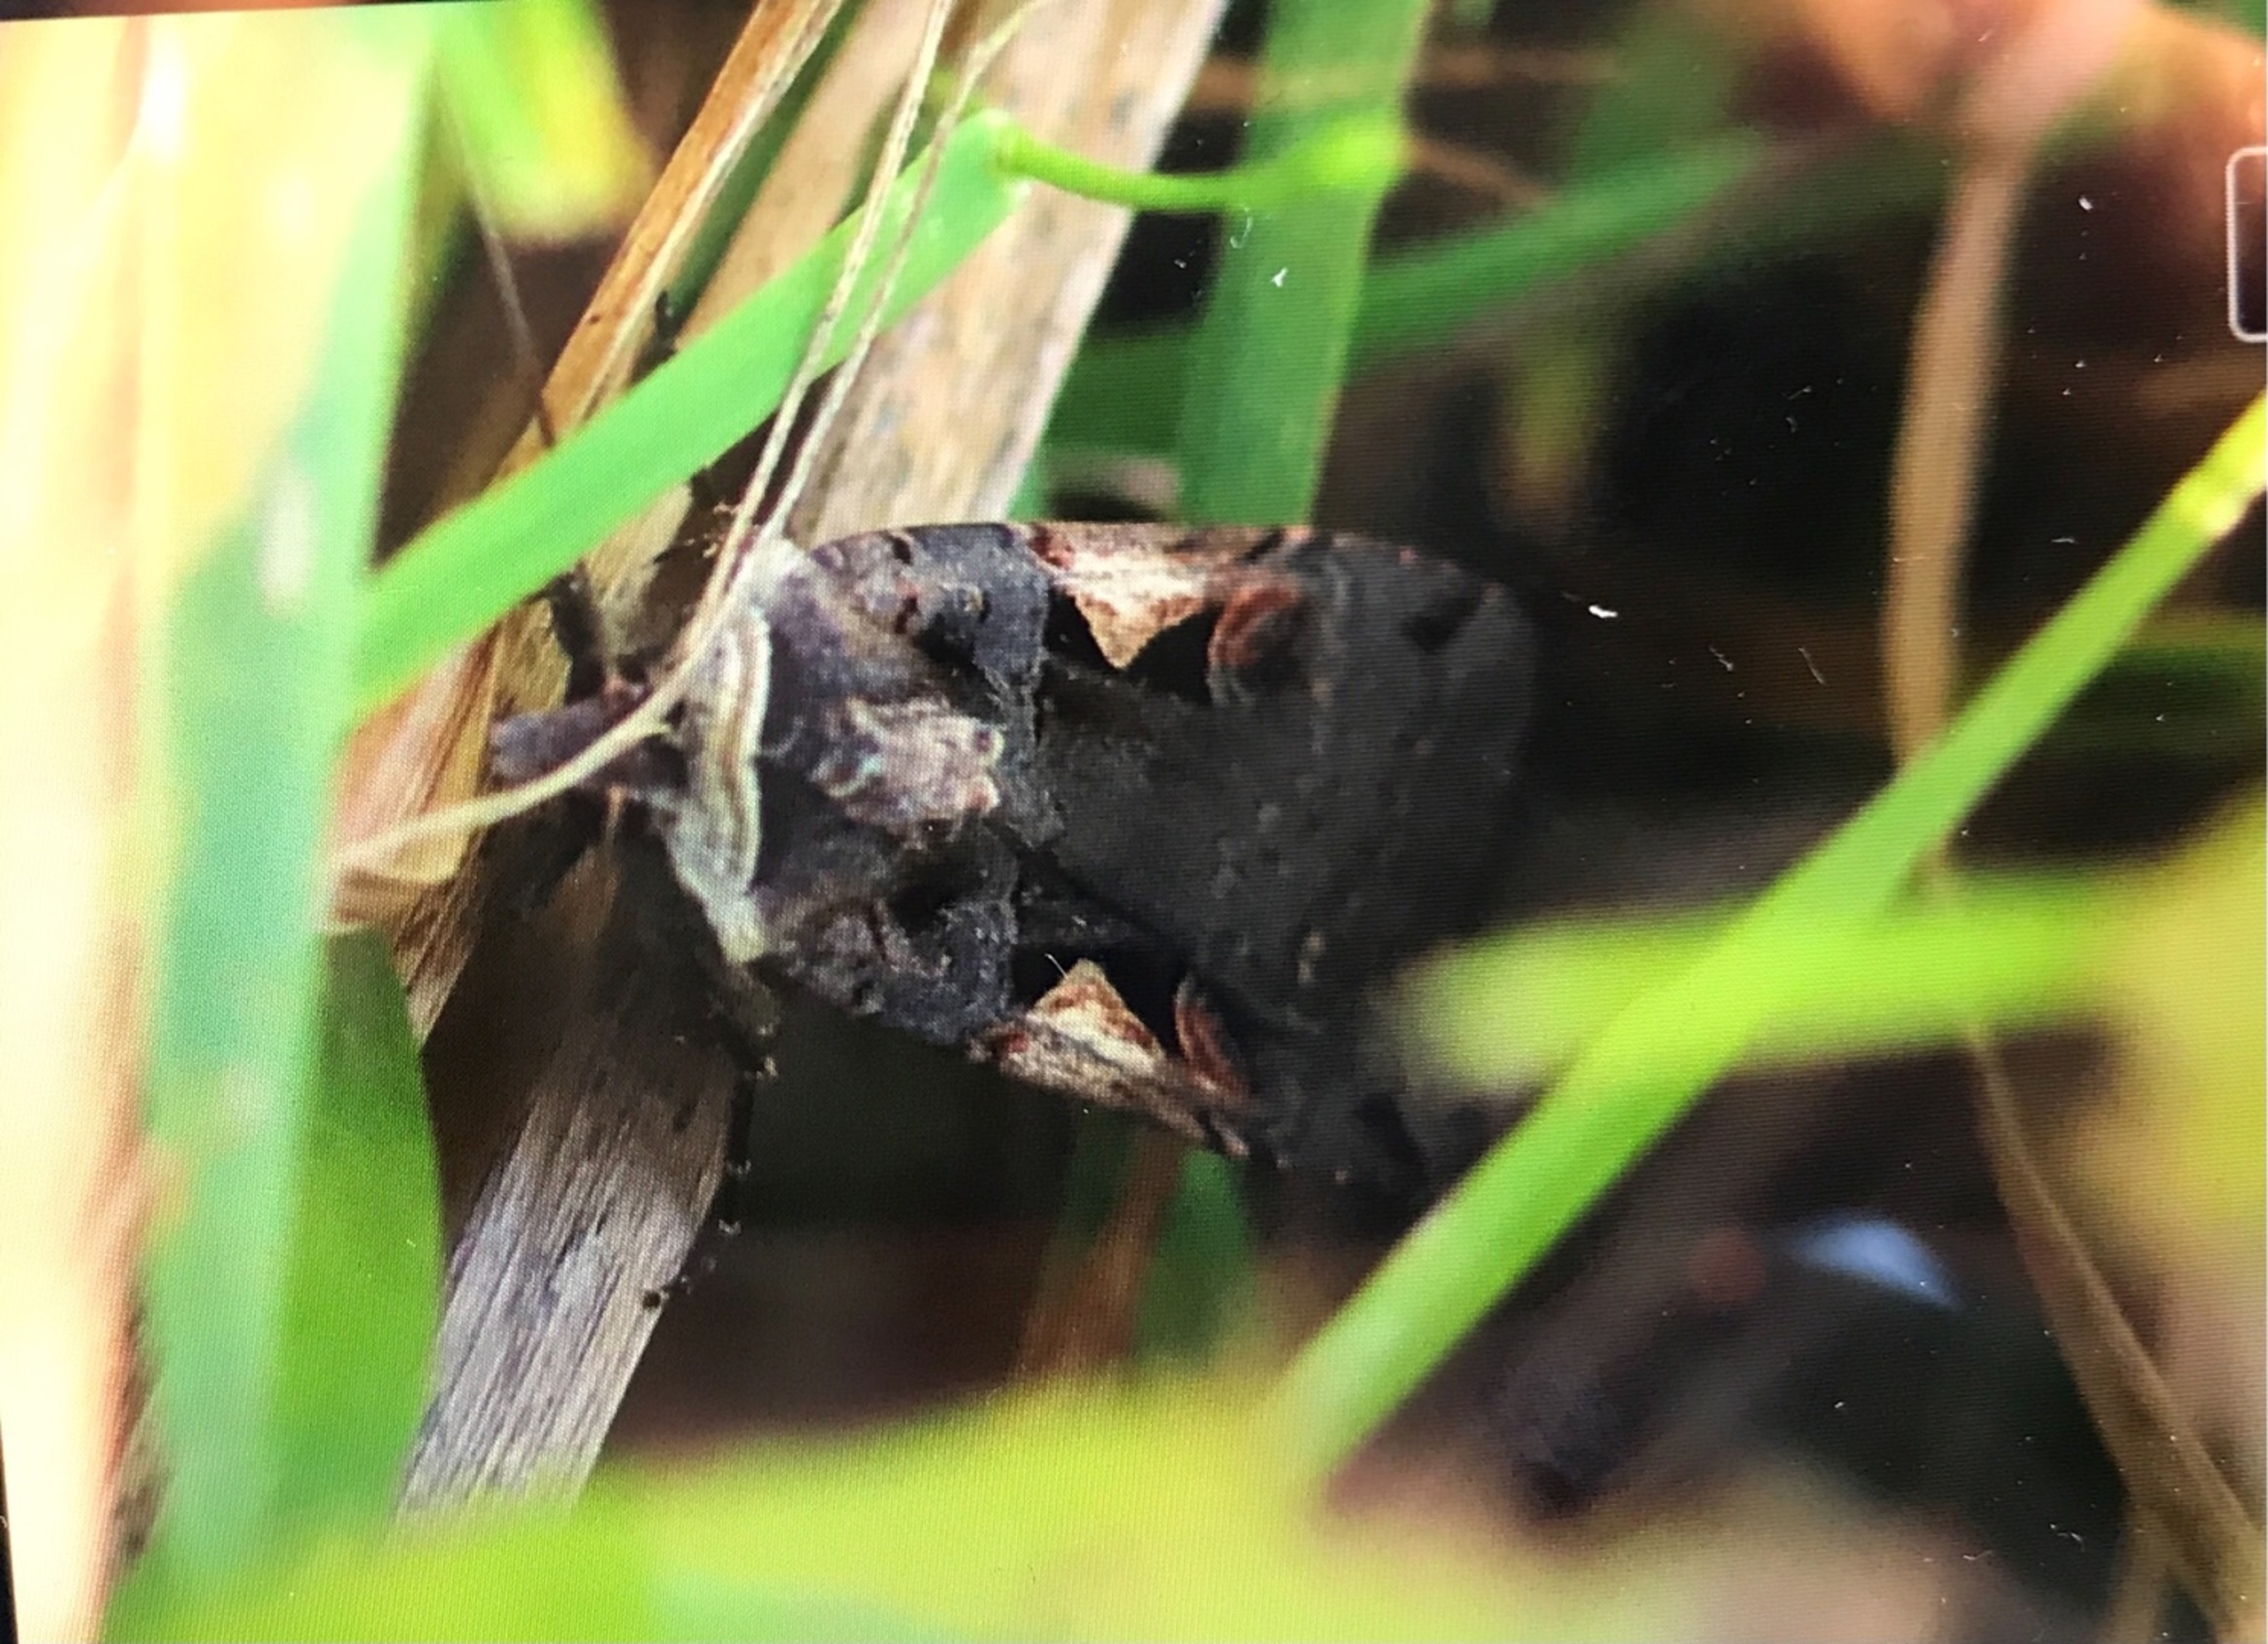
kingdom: Animalia
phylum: Arthropoda
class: Insecta
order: Lepidoptera
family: Noctuidae
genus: Xestia
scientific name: Xestia c-nigrum
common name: Det sorte c
